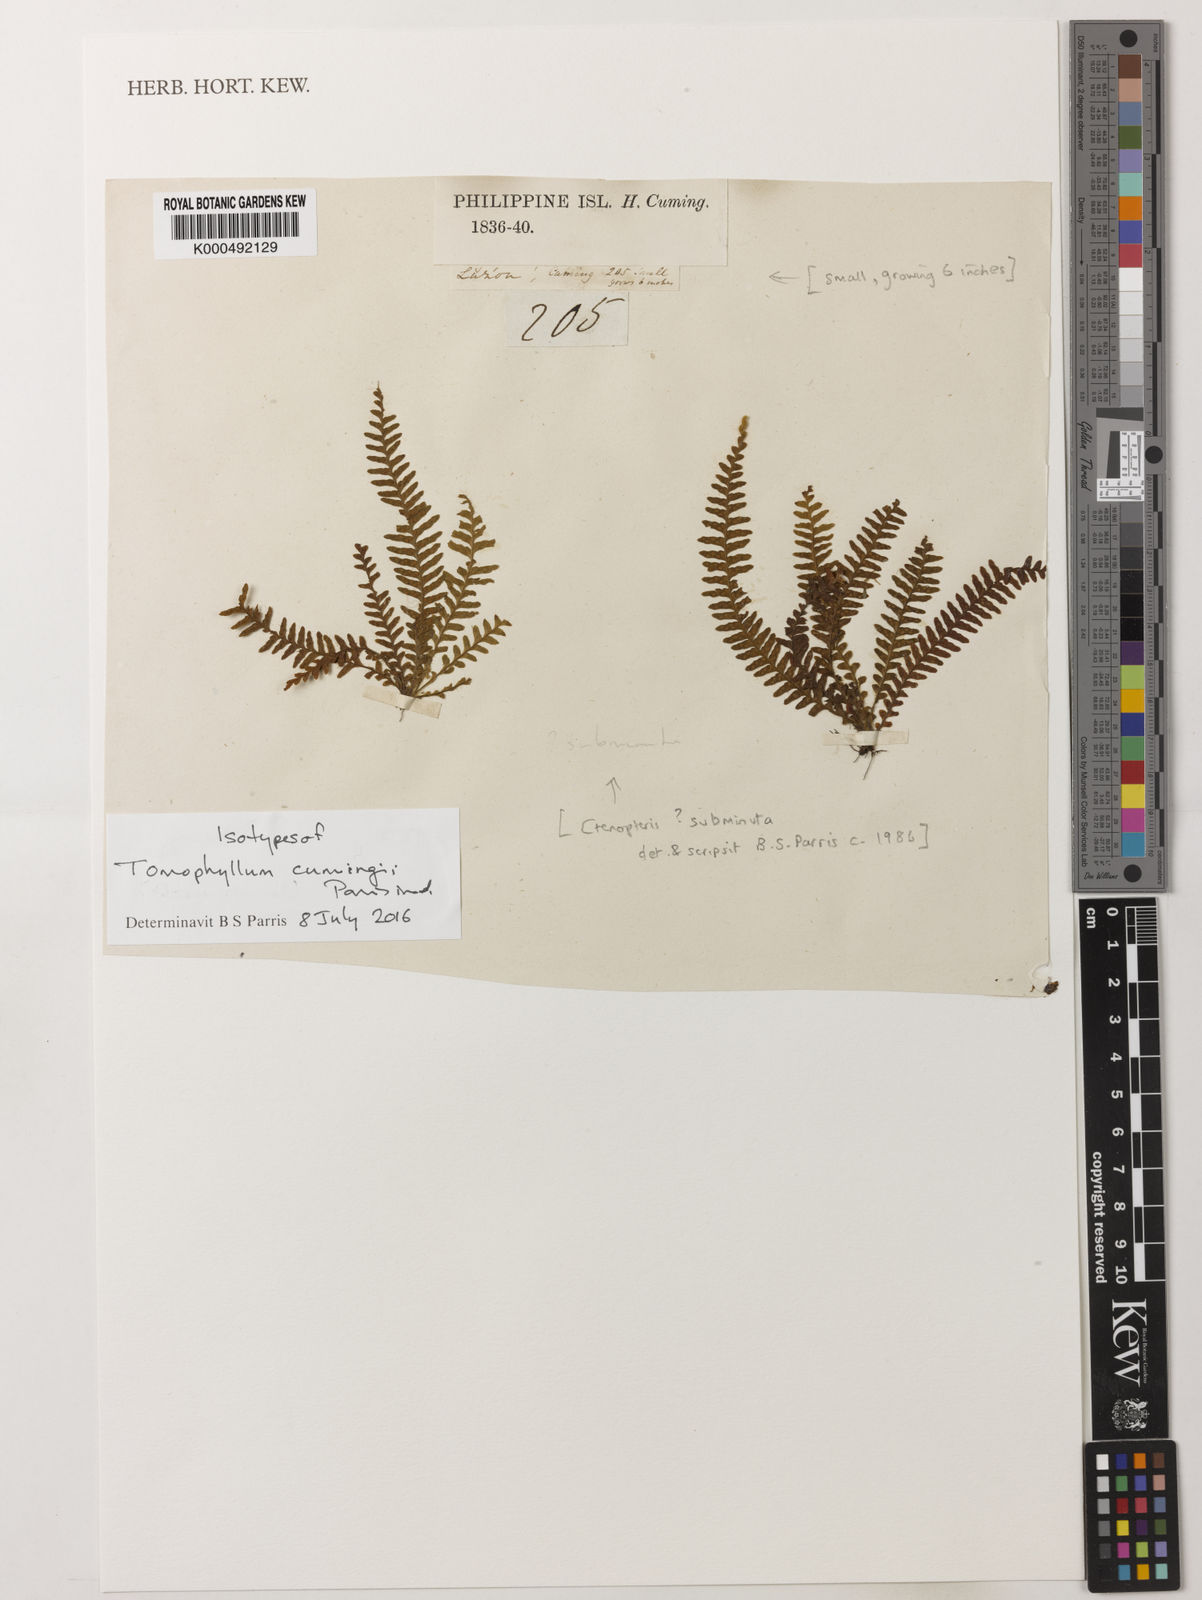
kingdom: Plantae
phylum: Tracheophyta
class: Polypodiopsida
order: Polypodiales
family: Polypodiaceae
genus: Tomophyllum
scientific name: Tomophyllum
